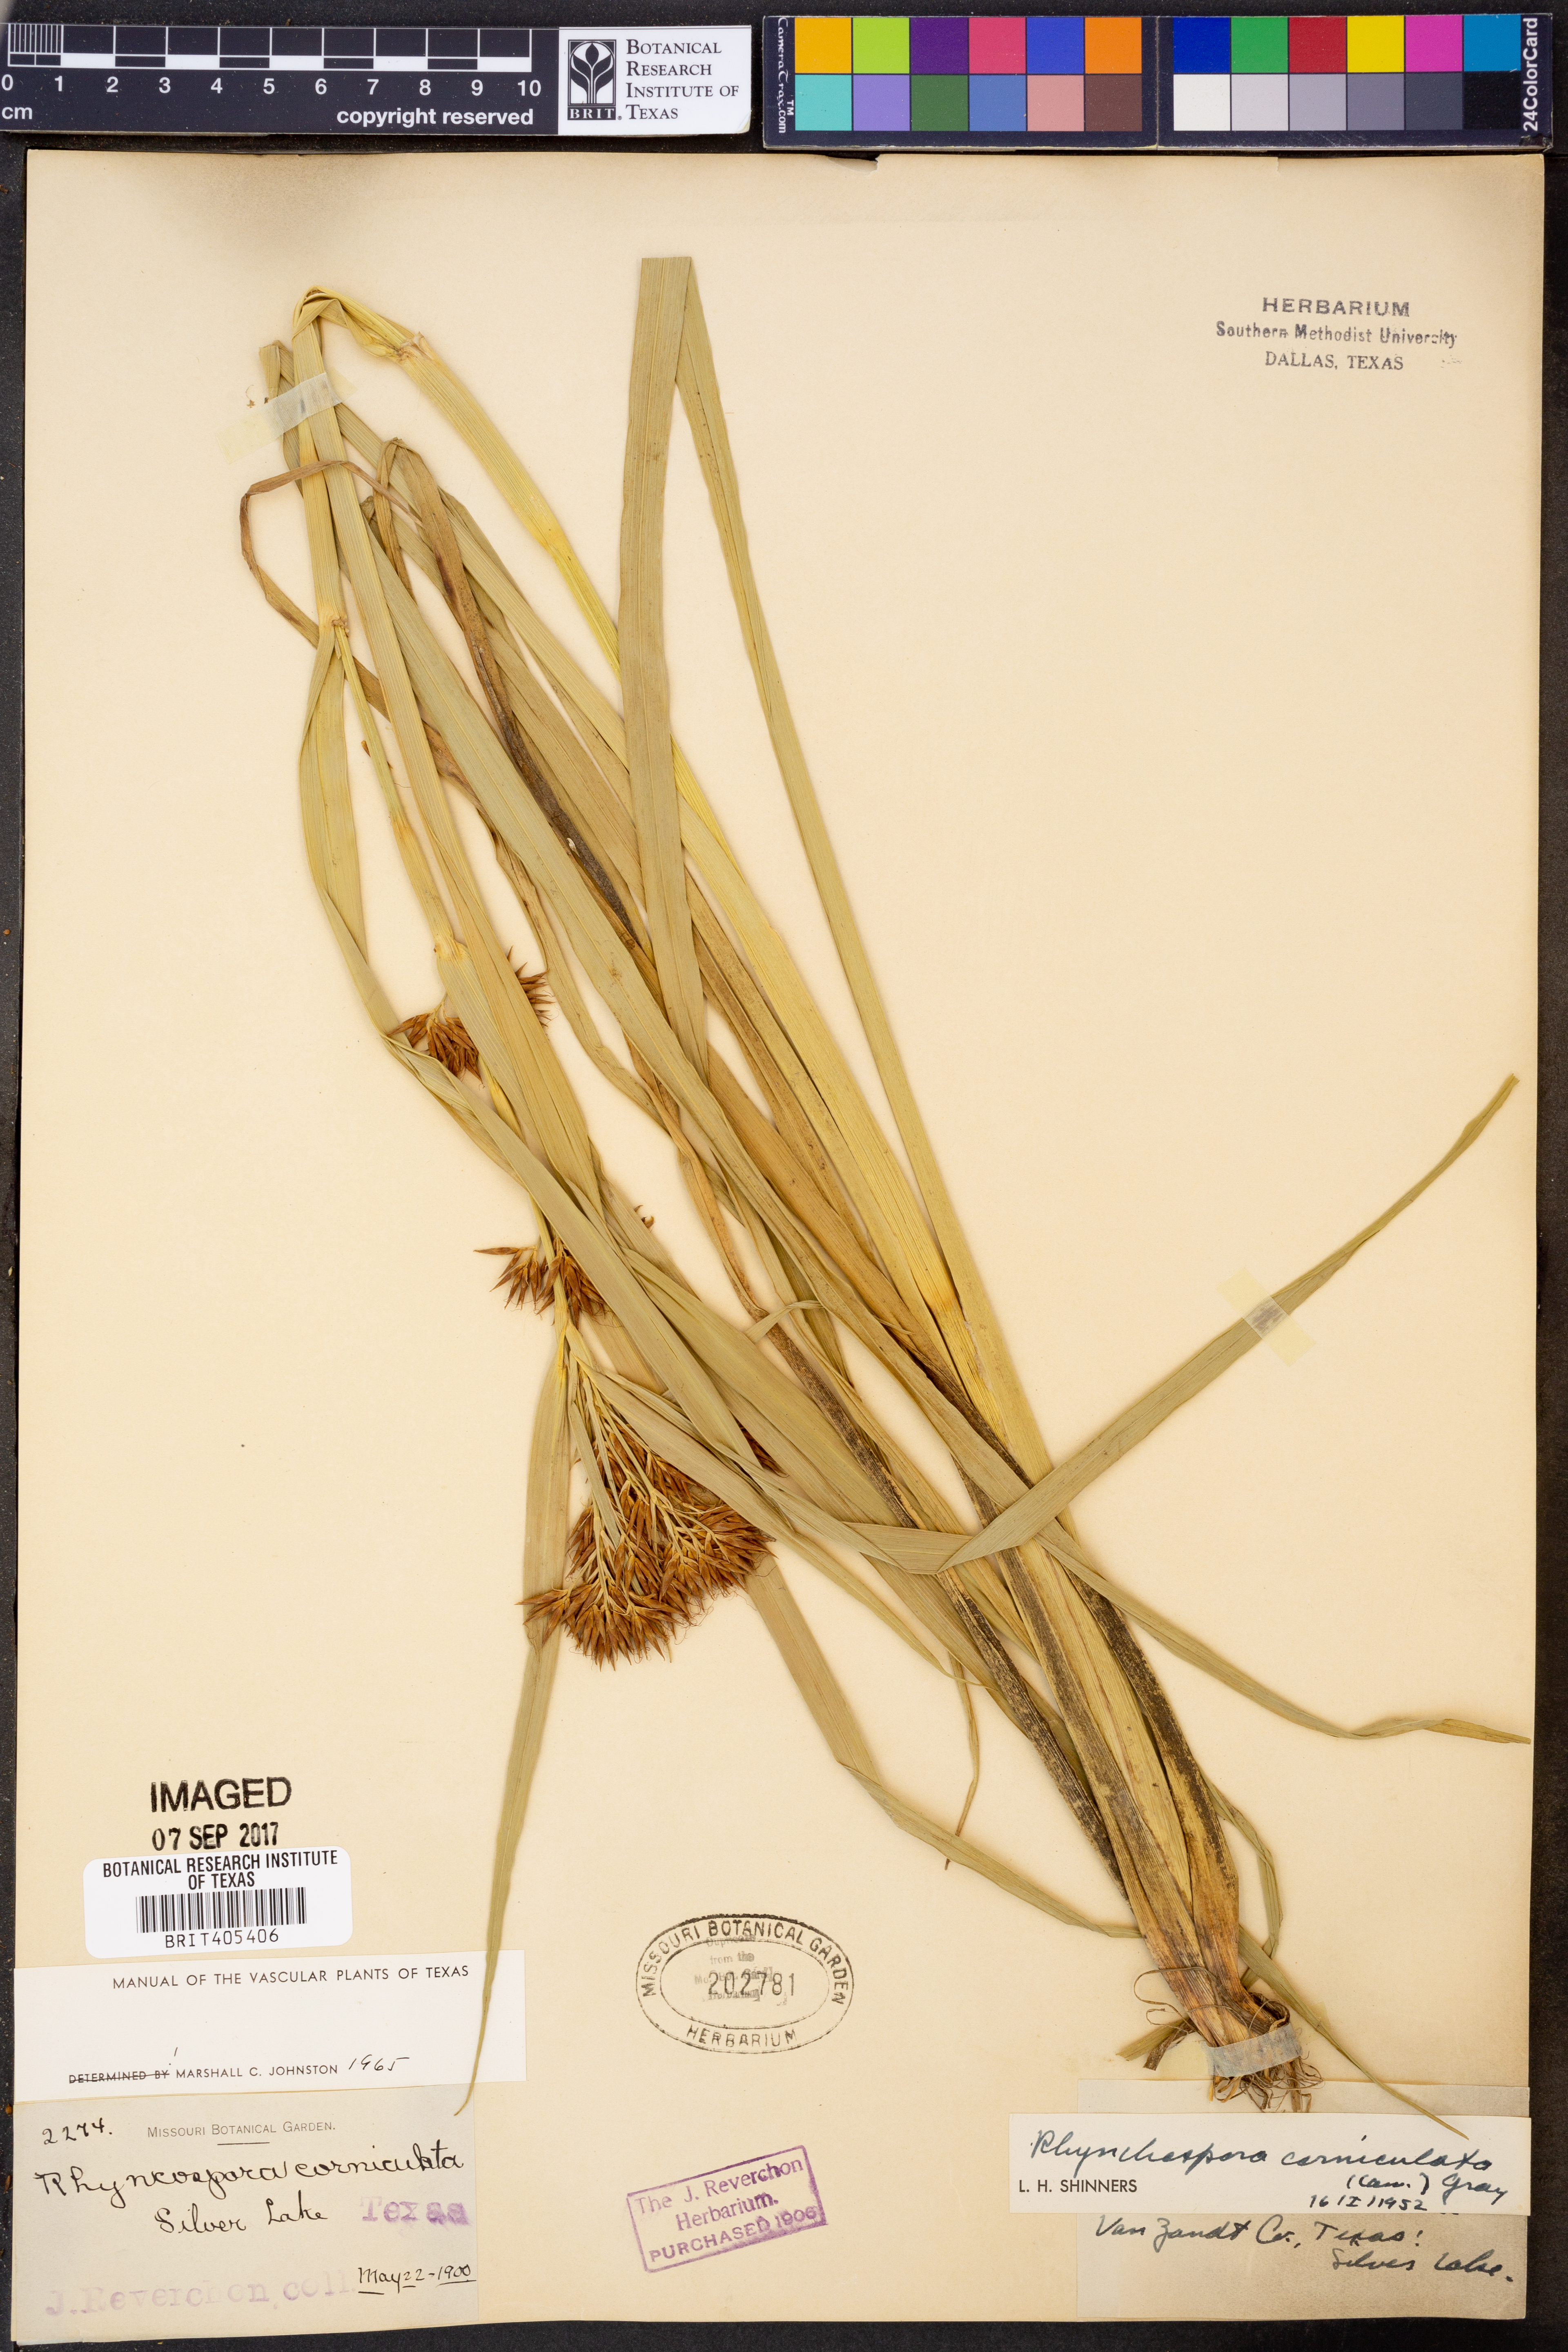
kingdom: Plantae
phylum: Tracheophyta
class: Liliopsida
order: Poales
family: Cyperaceae
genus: Rhynchospora
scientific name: Rhynchospora corniculata
